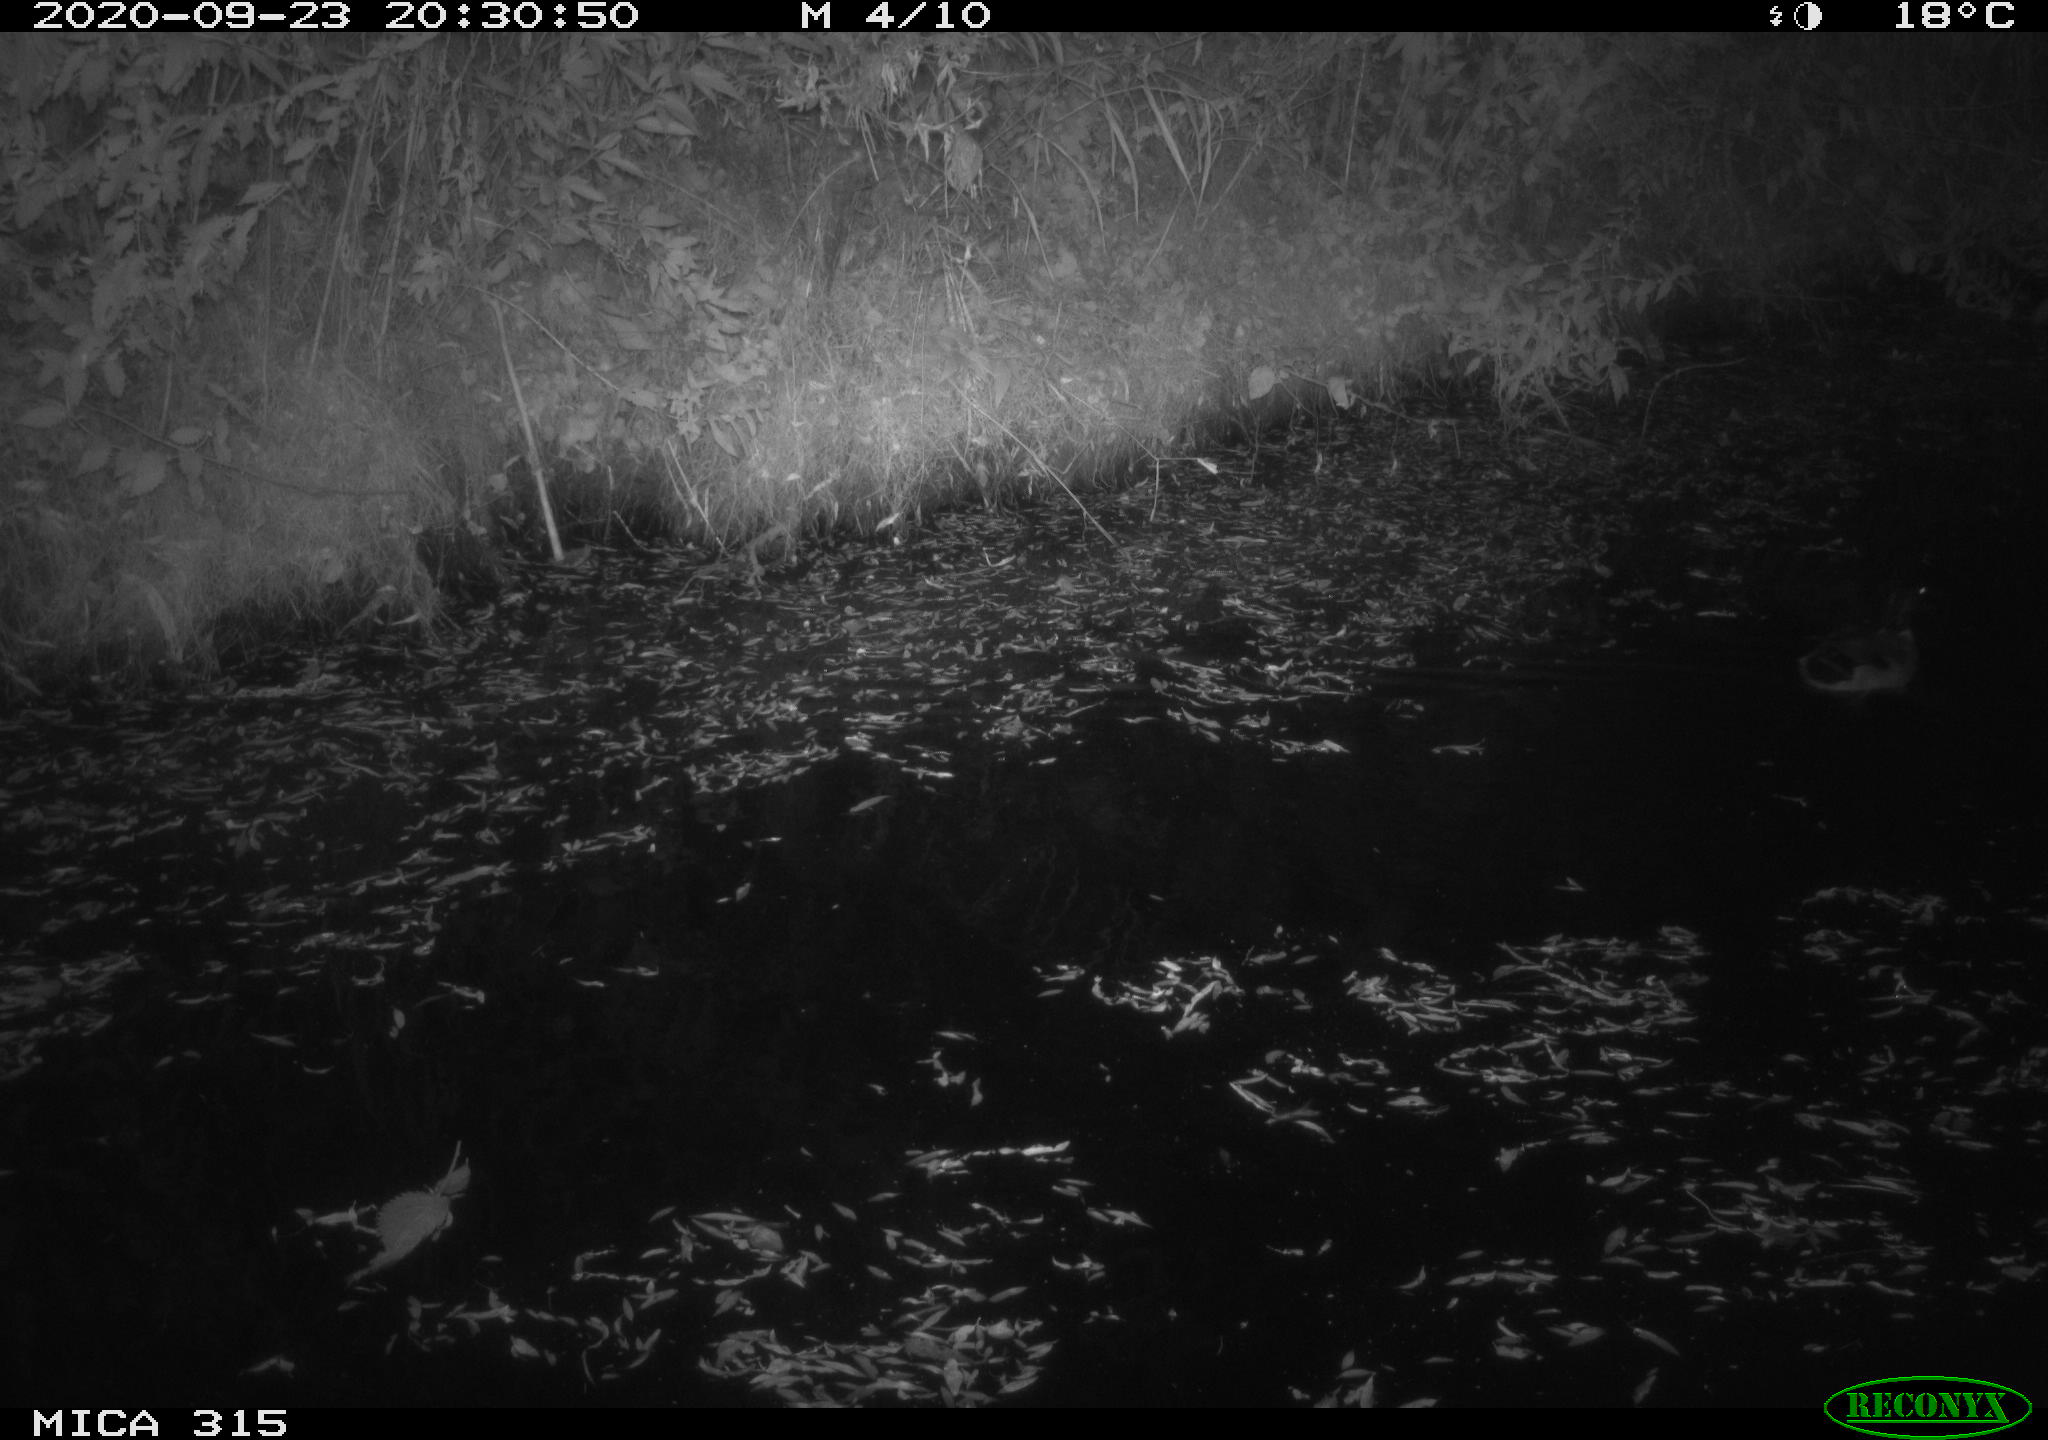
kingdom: Animalia
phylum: Chordata
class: Aves
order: Anseriformes
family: Anatidae
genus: Anas
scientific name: Anas platyrhynchos
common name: Mallard
